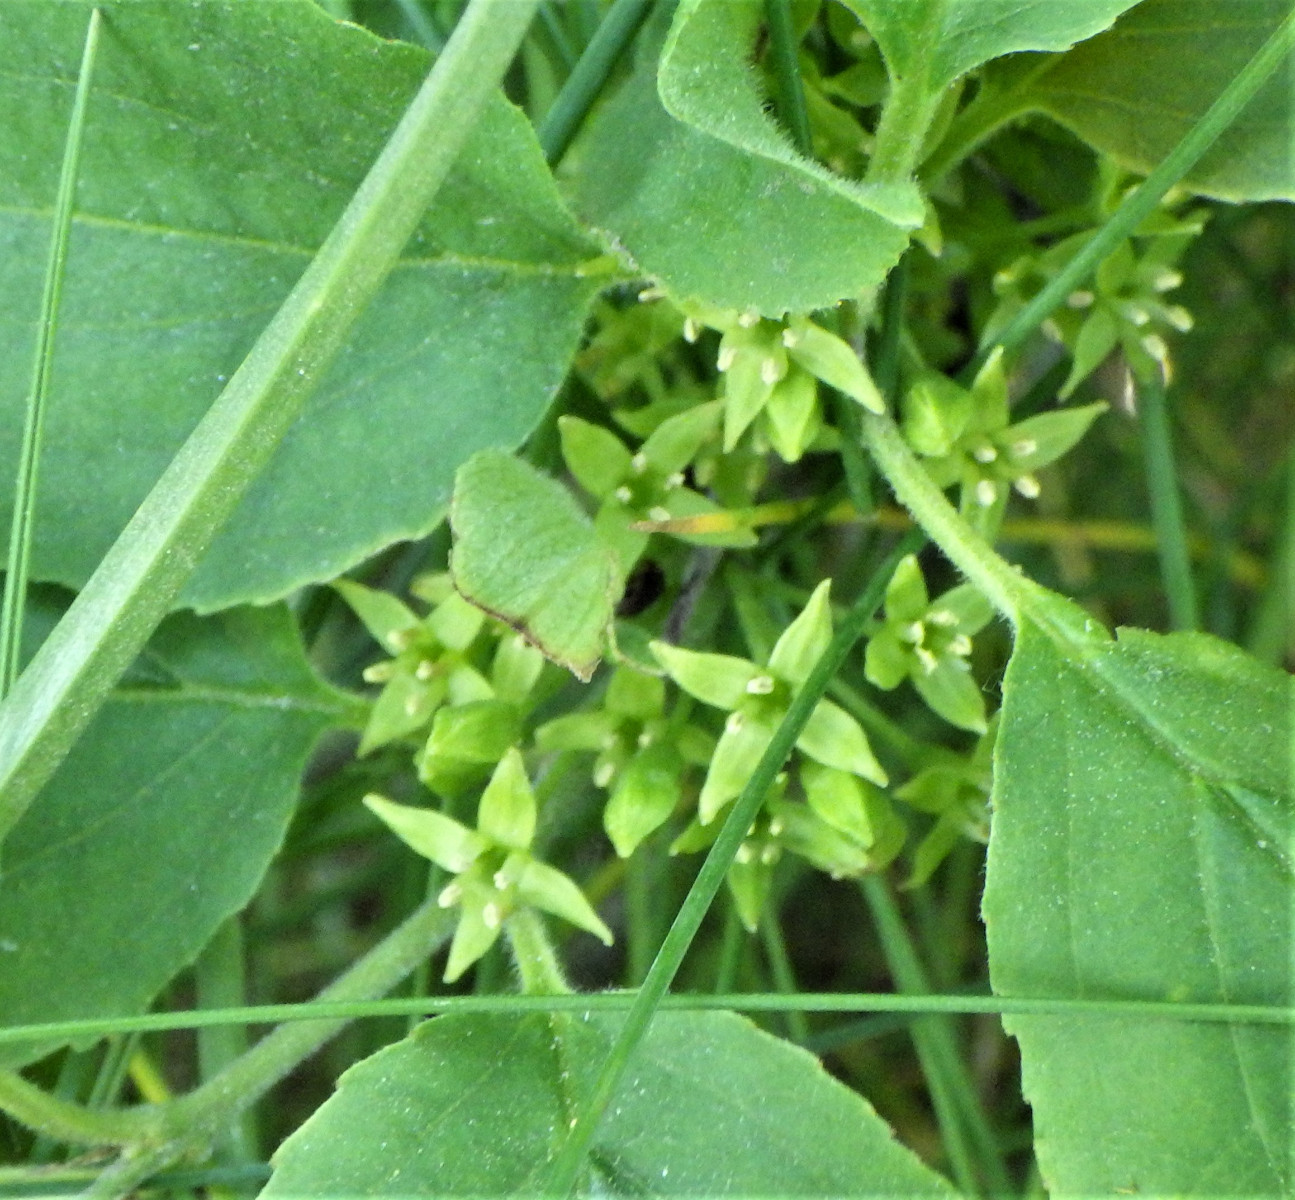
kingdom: Fungi
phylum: Basidiomycota
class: Pucciniomycetes
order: Pucciniales
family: Pucciniaceae
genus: Puccinia
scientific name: Puccinia coronata
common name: Crown rust
